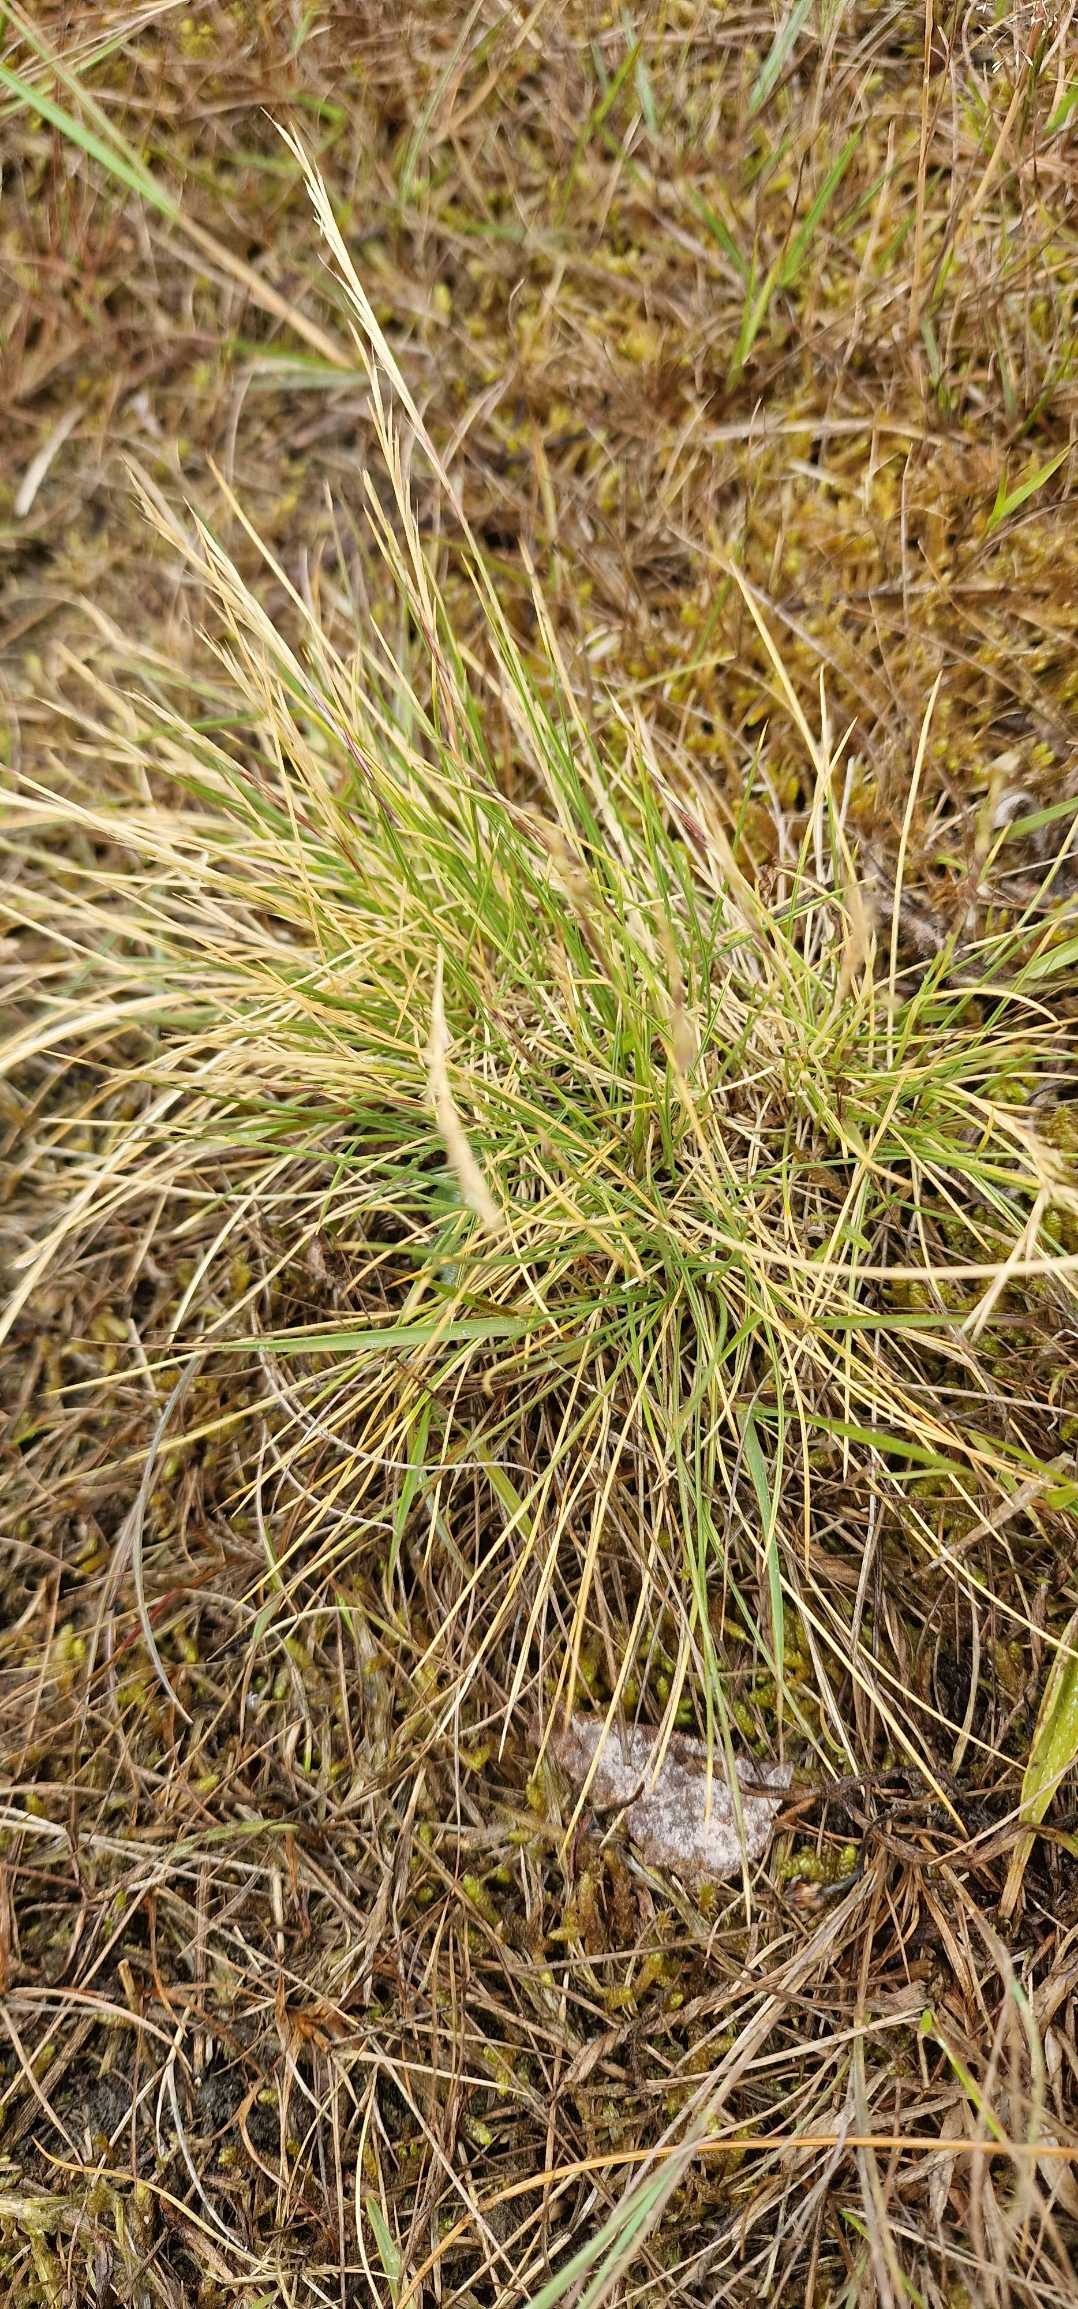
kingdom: Plantae
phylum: Tracheophyta
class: Liliopsida
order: Poales
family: Poaceae
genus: Nardus
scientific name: Nardus stricta
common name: Katteskæg
